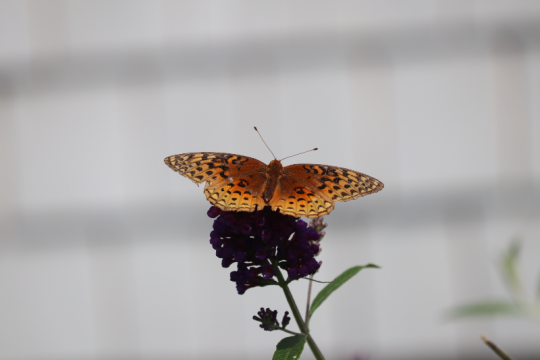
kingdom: Animalia
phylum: Arthropoda
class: Insecta
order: Lepidoptera
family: Nymphalidae
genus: Speyeria
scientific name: Speyeria aphrodite
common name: Aphrodite Fritillary
